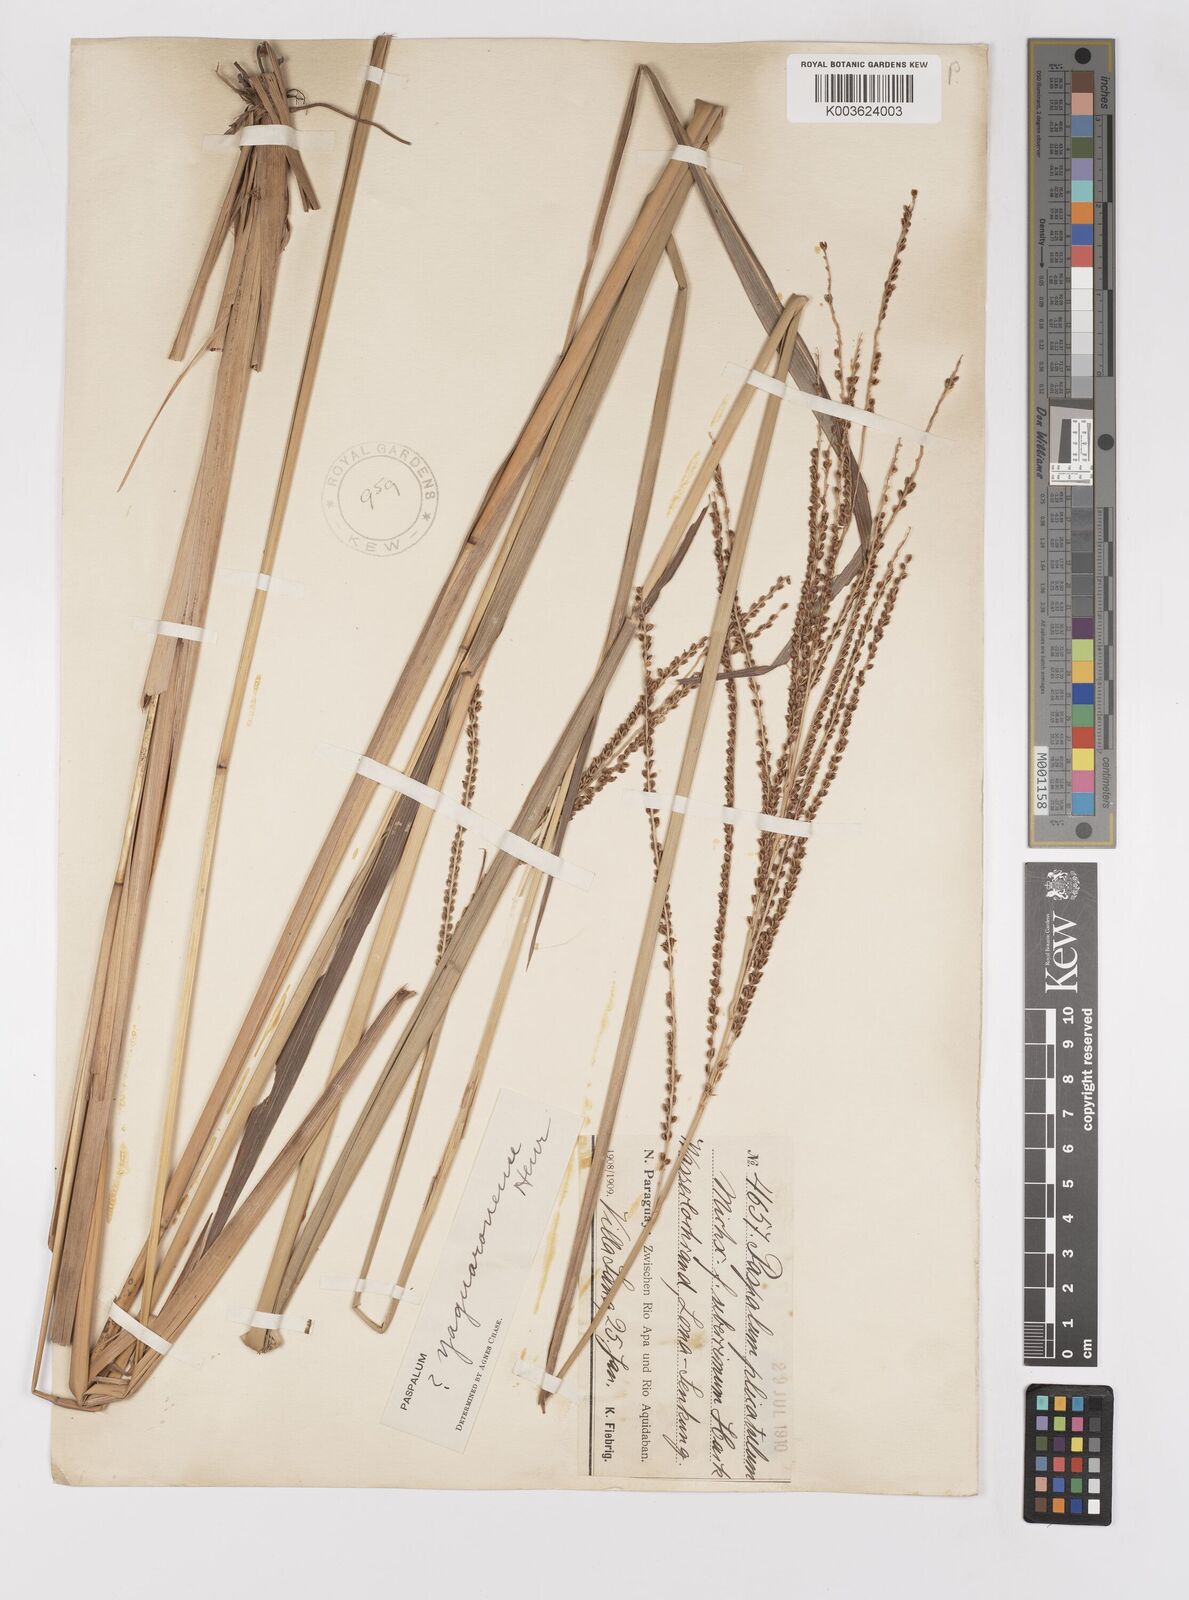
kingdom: Plantae
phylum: Tracheophyta
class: Liliopsida
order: Poales
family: Poaceae
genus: Paspalum
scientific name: Paspalum glaucescens
